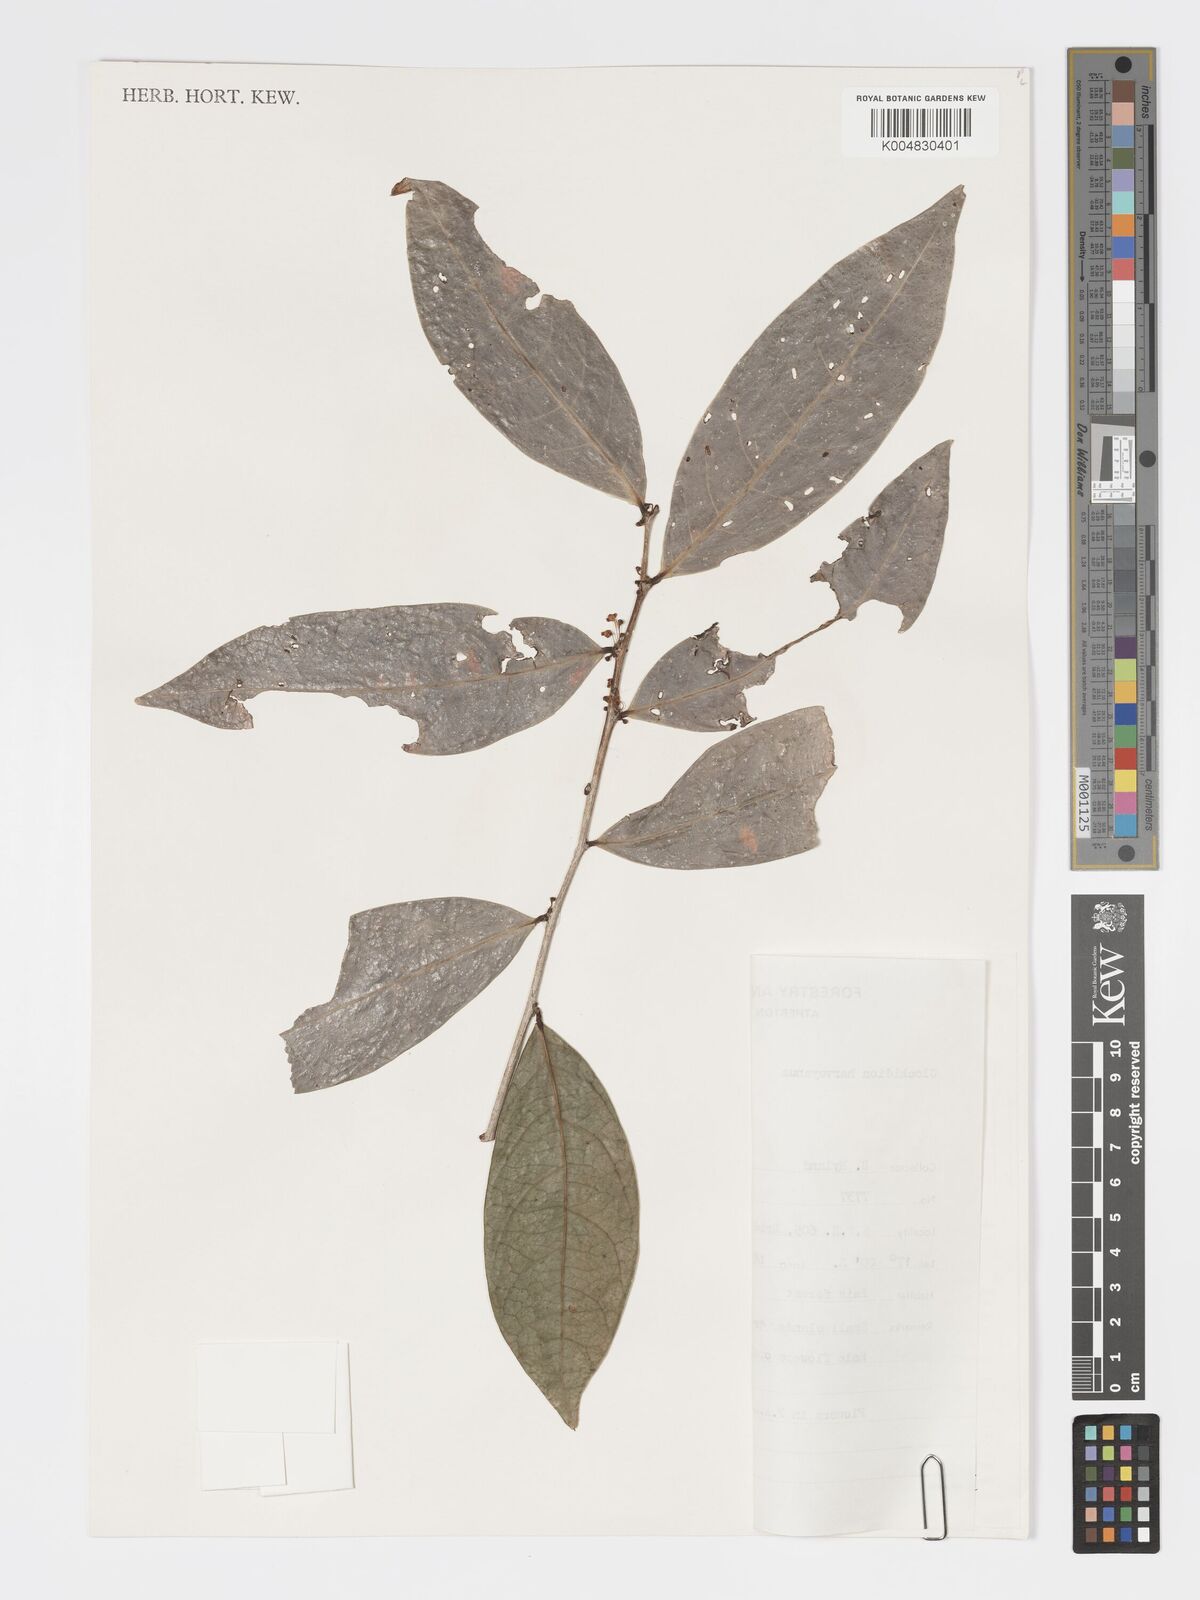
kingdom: Plantae
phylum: Tracheophyta
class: Magnoliopsida
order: Malpighiales
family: Phyllanthaceae
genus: Glochidion
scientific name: Glochidion harveyanum
